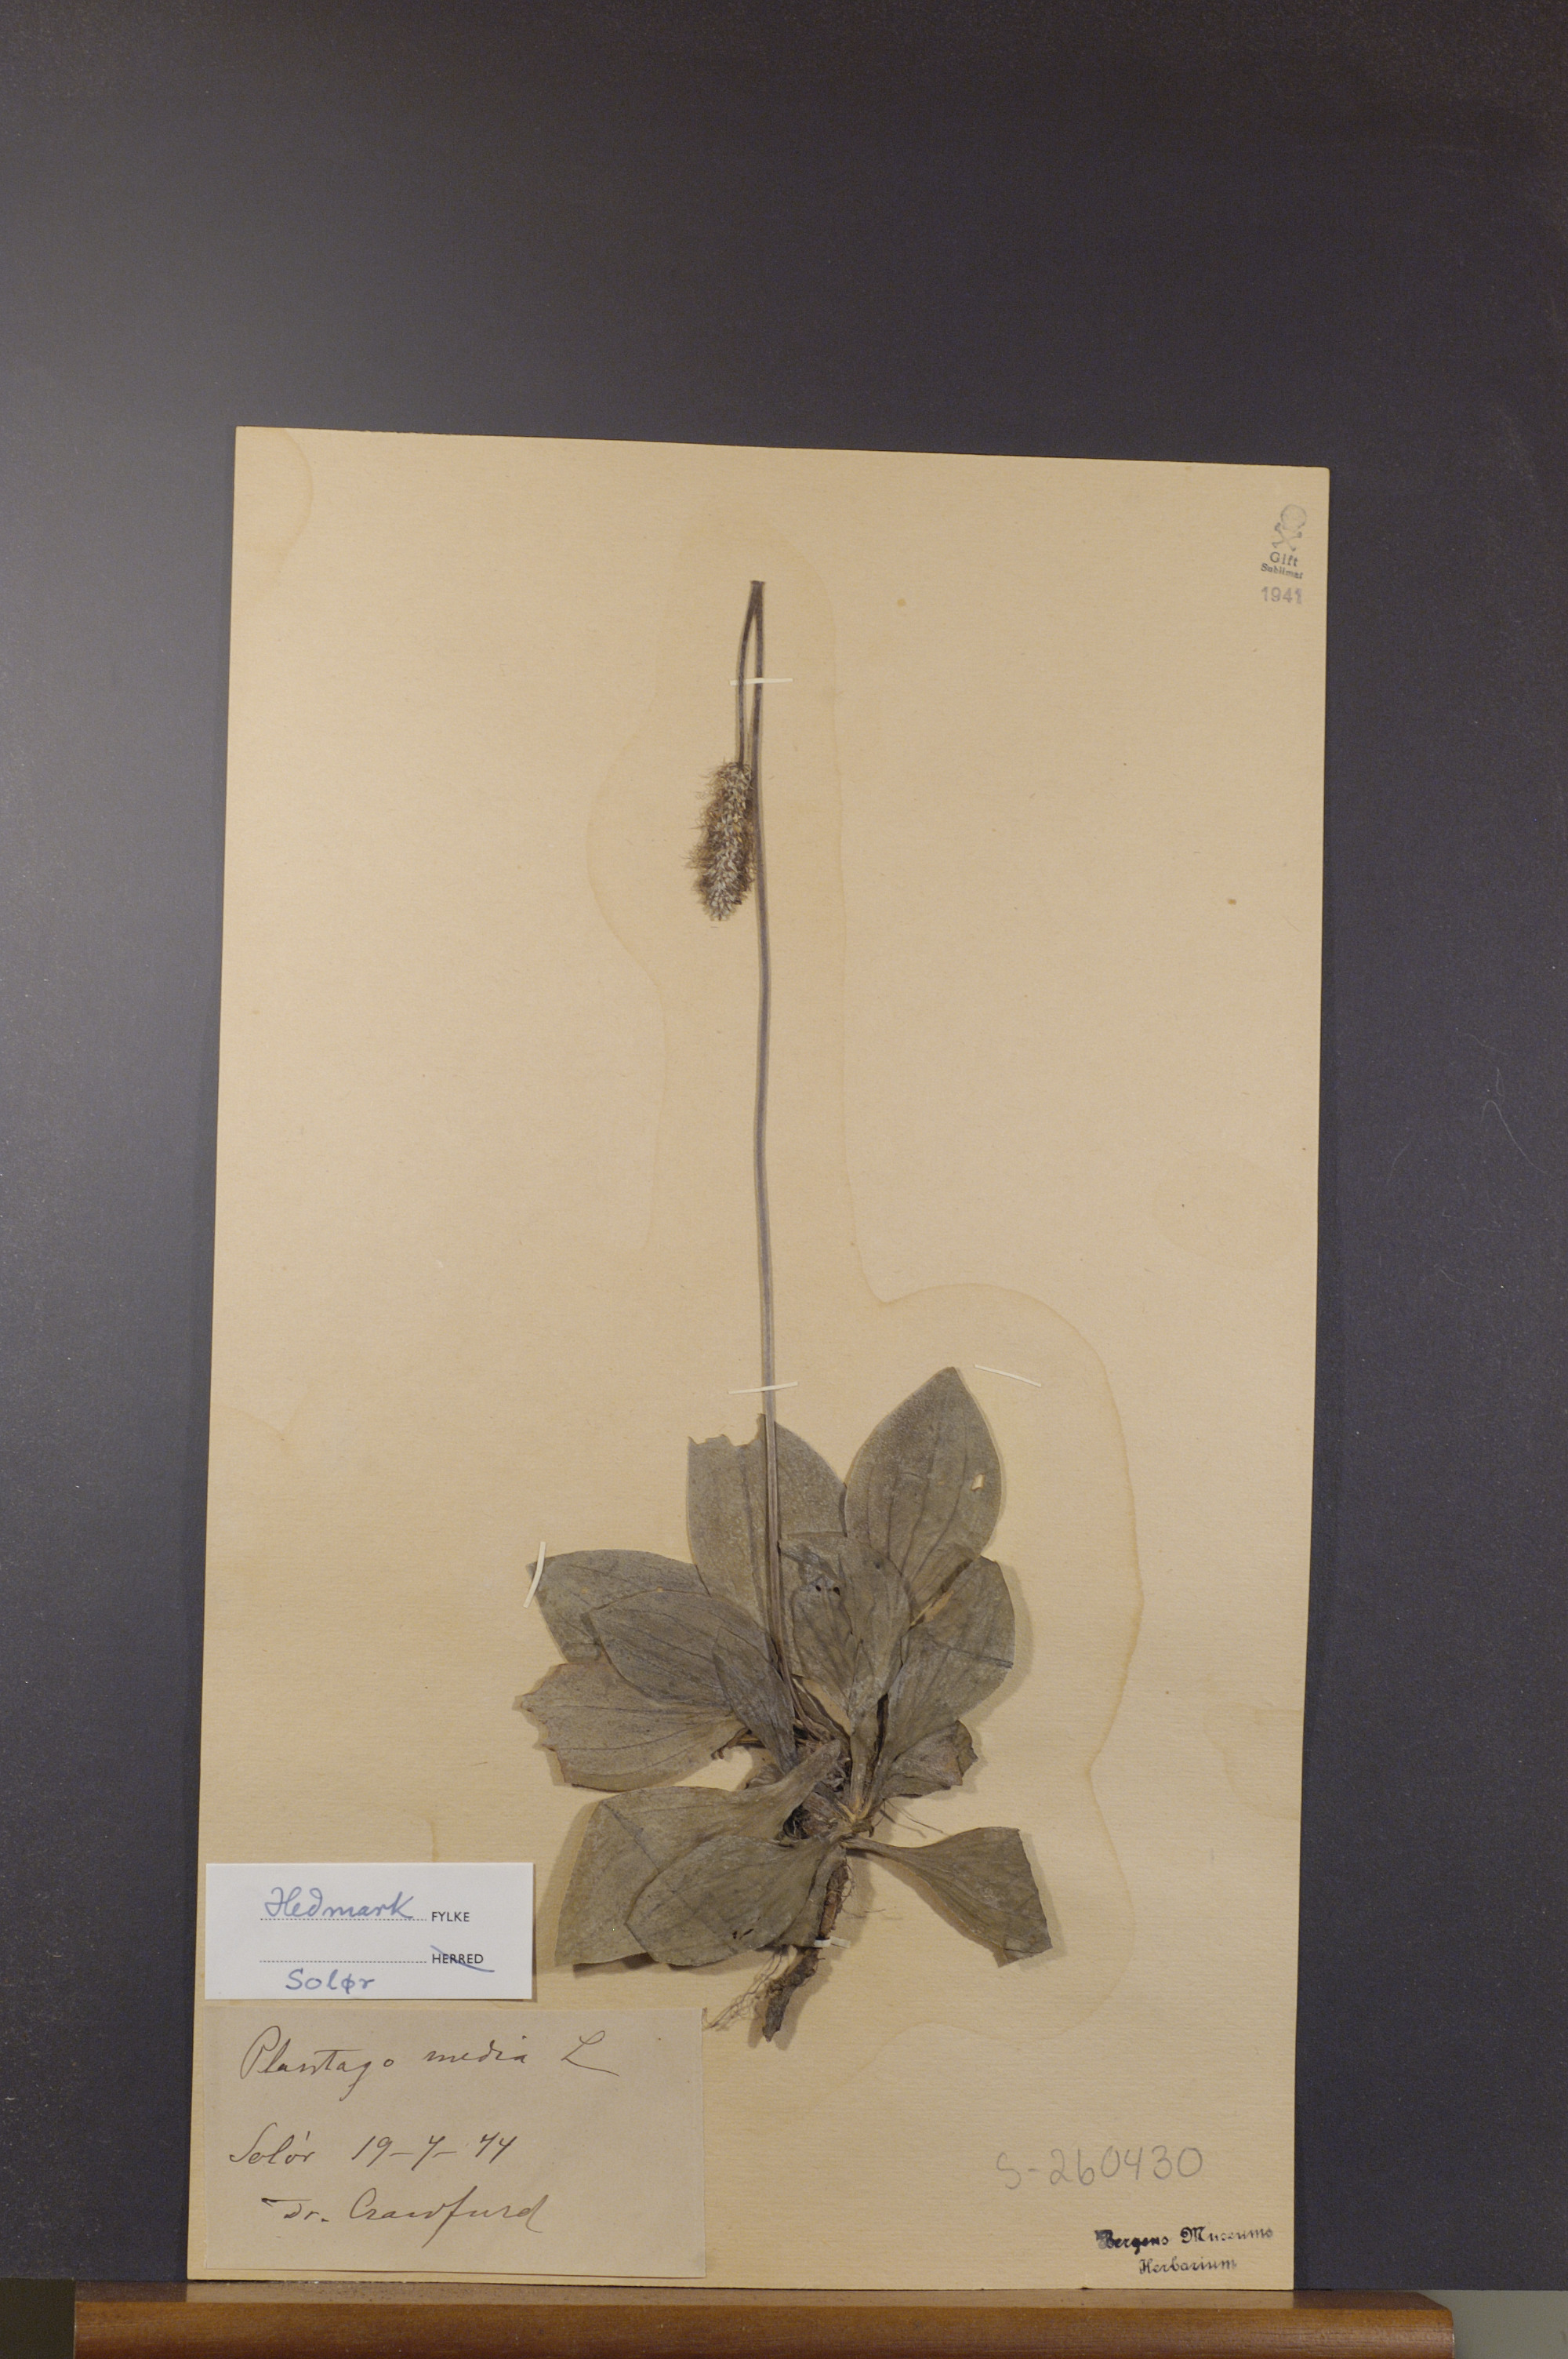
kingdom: Plantae
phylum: Tracheophyta
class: Magnoliopsida
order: Lamiales
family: Plantaginaceae
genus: Plantago
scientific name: Plantago media
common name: Hoary plantain
